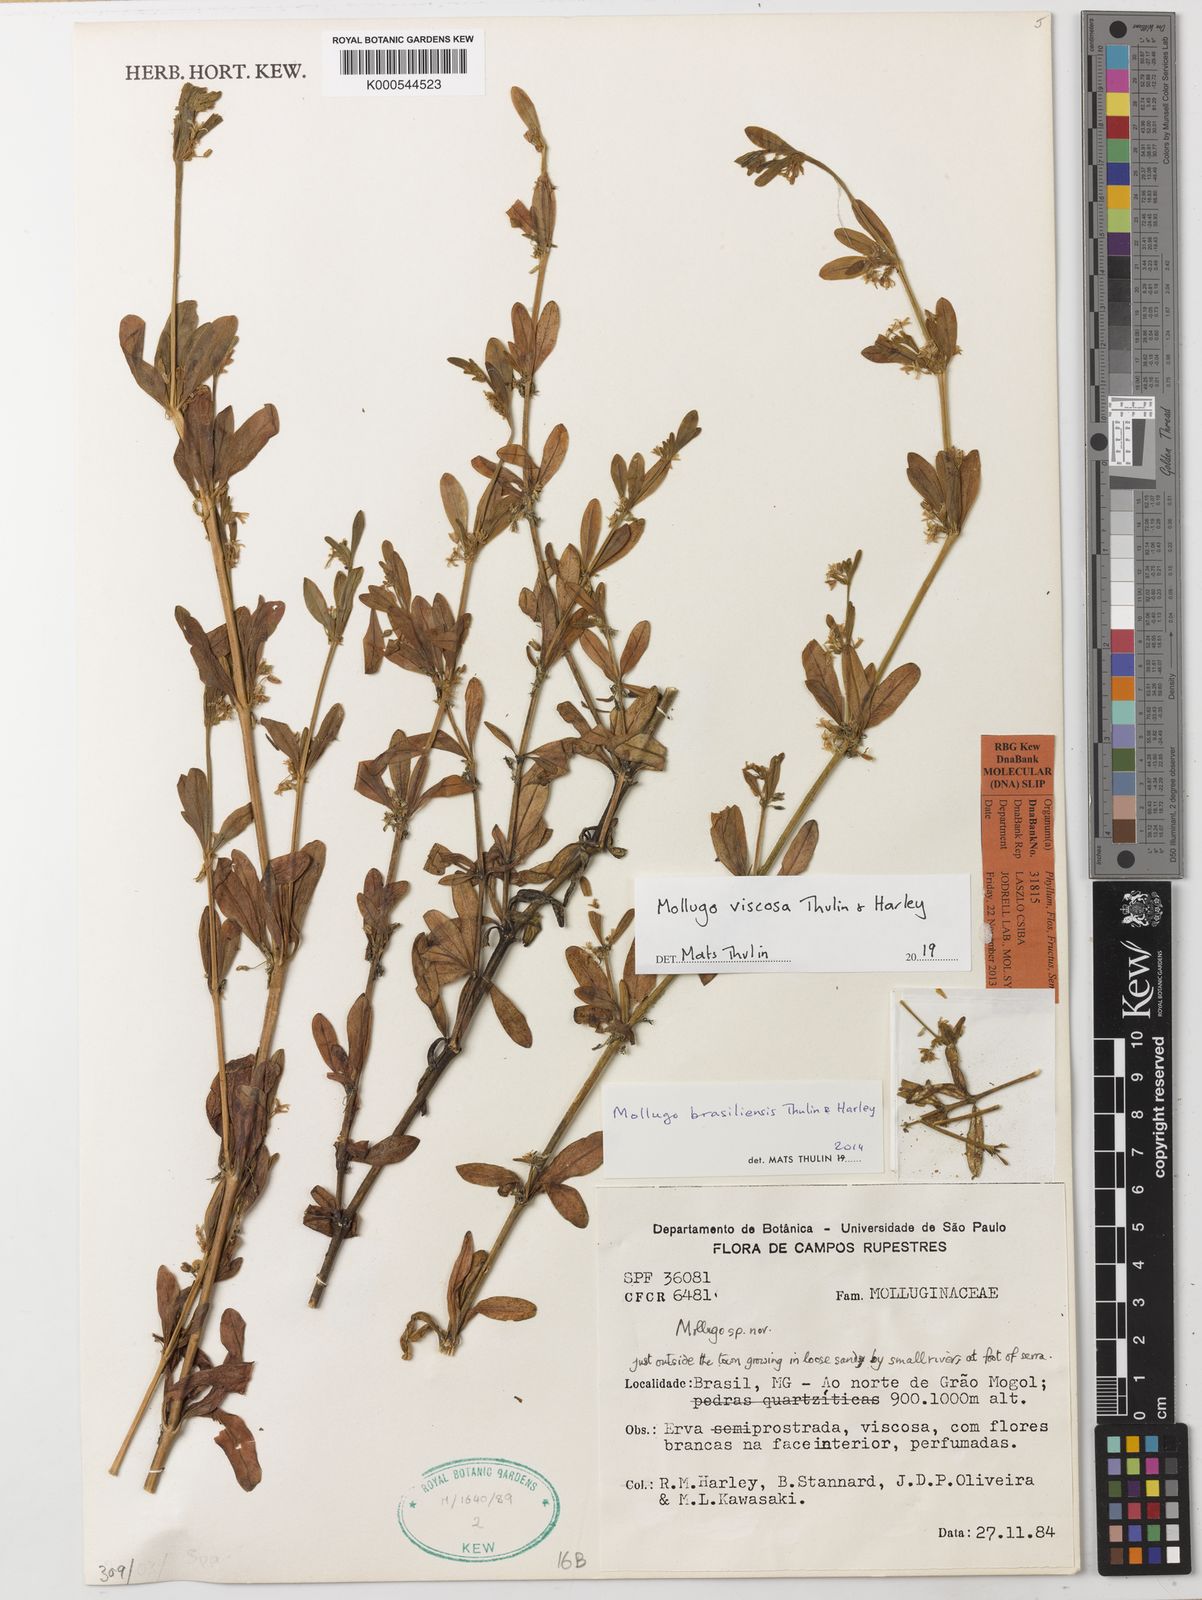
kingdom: Plantae
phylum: Tracheophyta
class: Magnoliopsida
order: Caryophyllales
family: Molluginaceae
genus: Mollugo
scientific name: Mollugo viscosa
